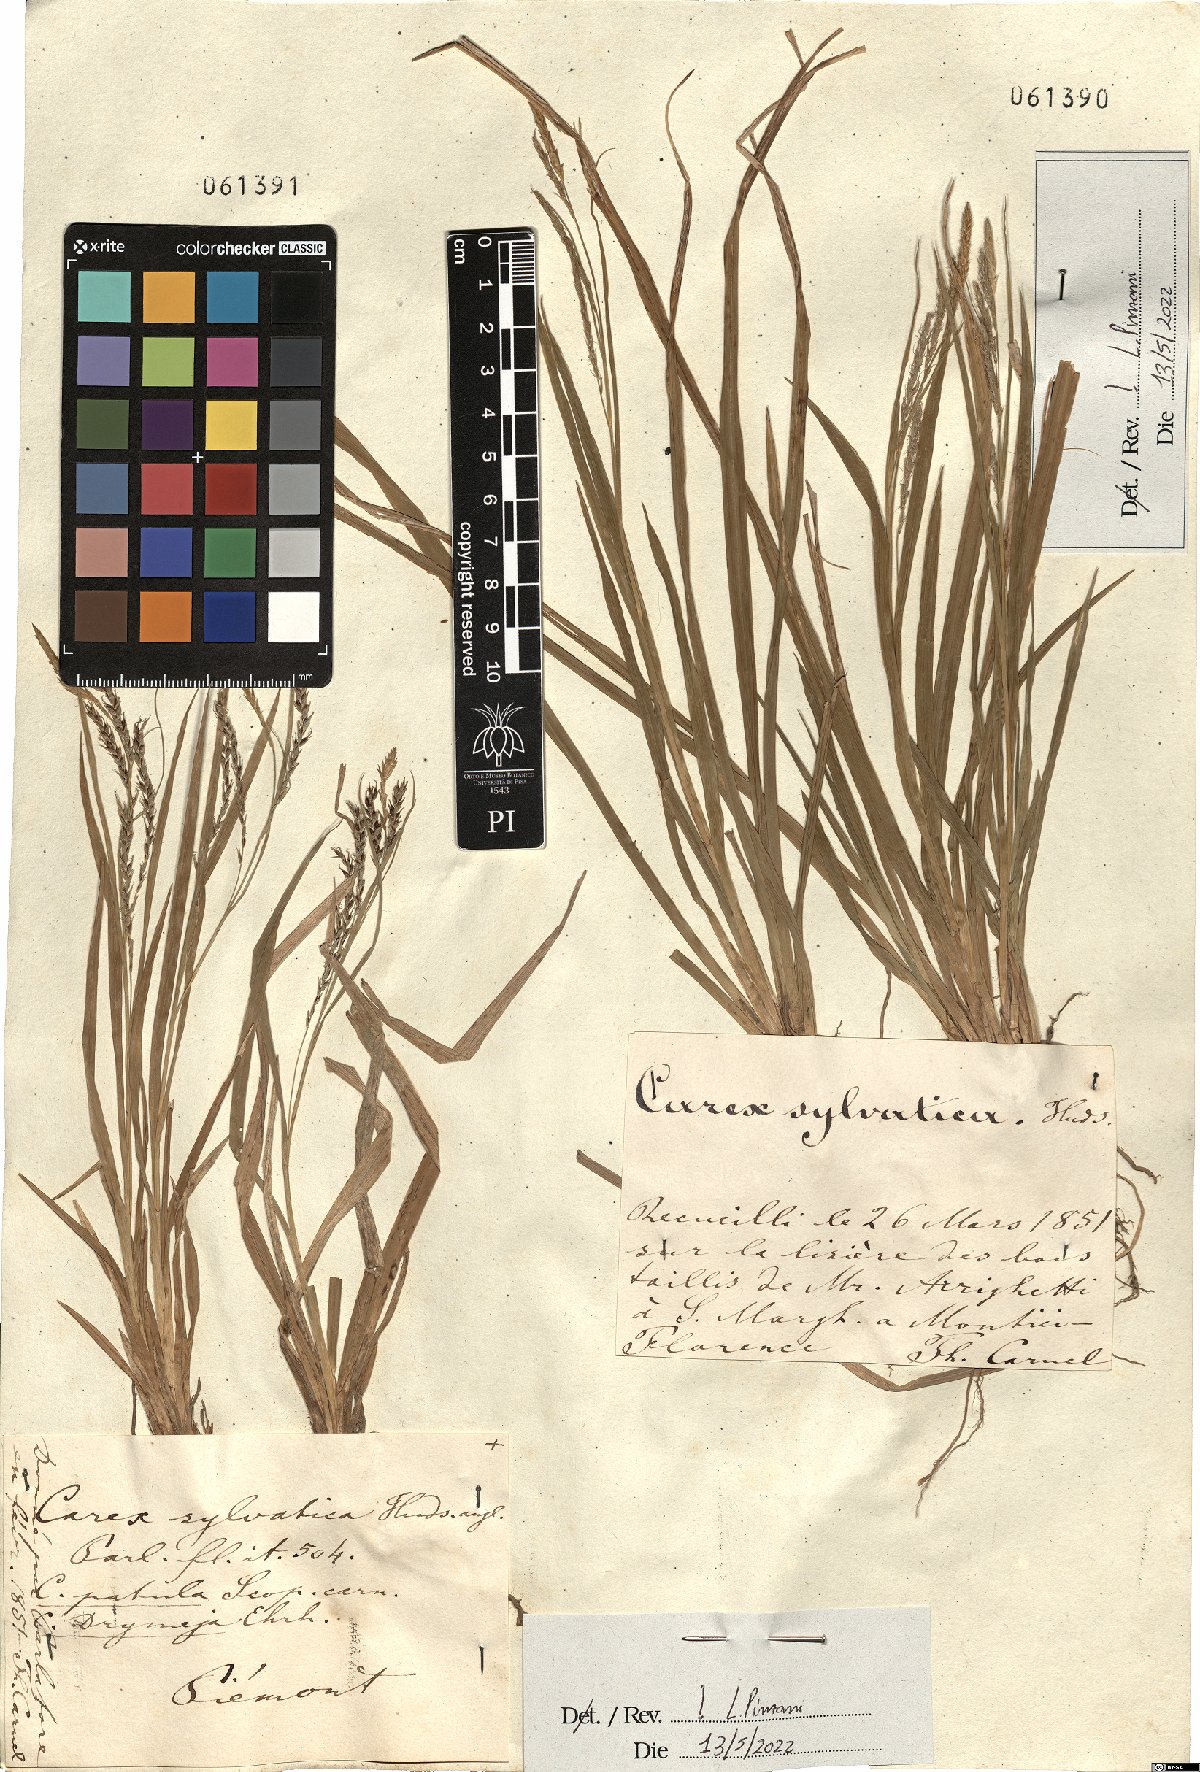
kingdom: Plantae
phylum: Tracheophyta
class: Liliopsida
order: Poales
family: Cyperaceae
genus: Carex
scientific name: Carex sylvatica
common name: Wood-sedge
